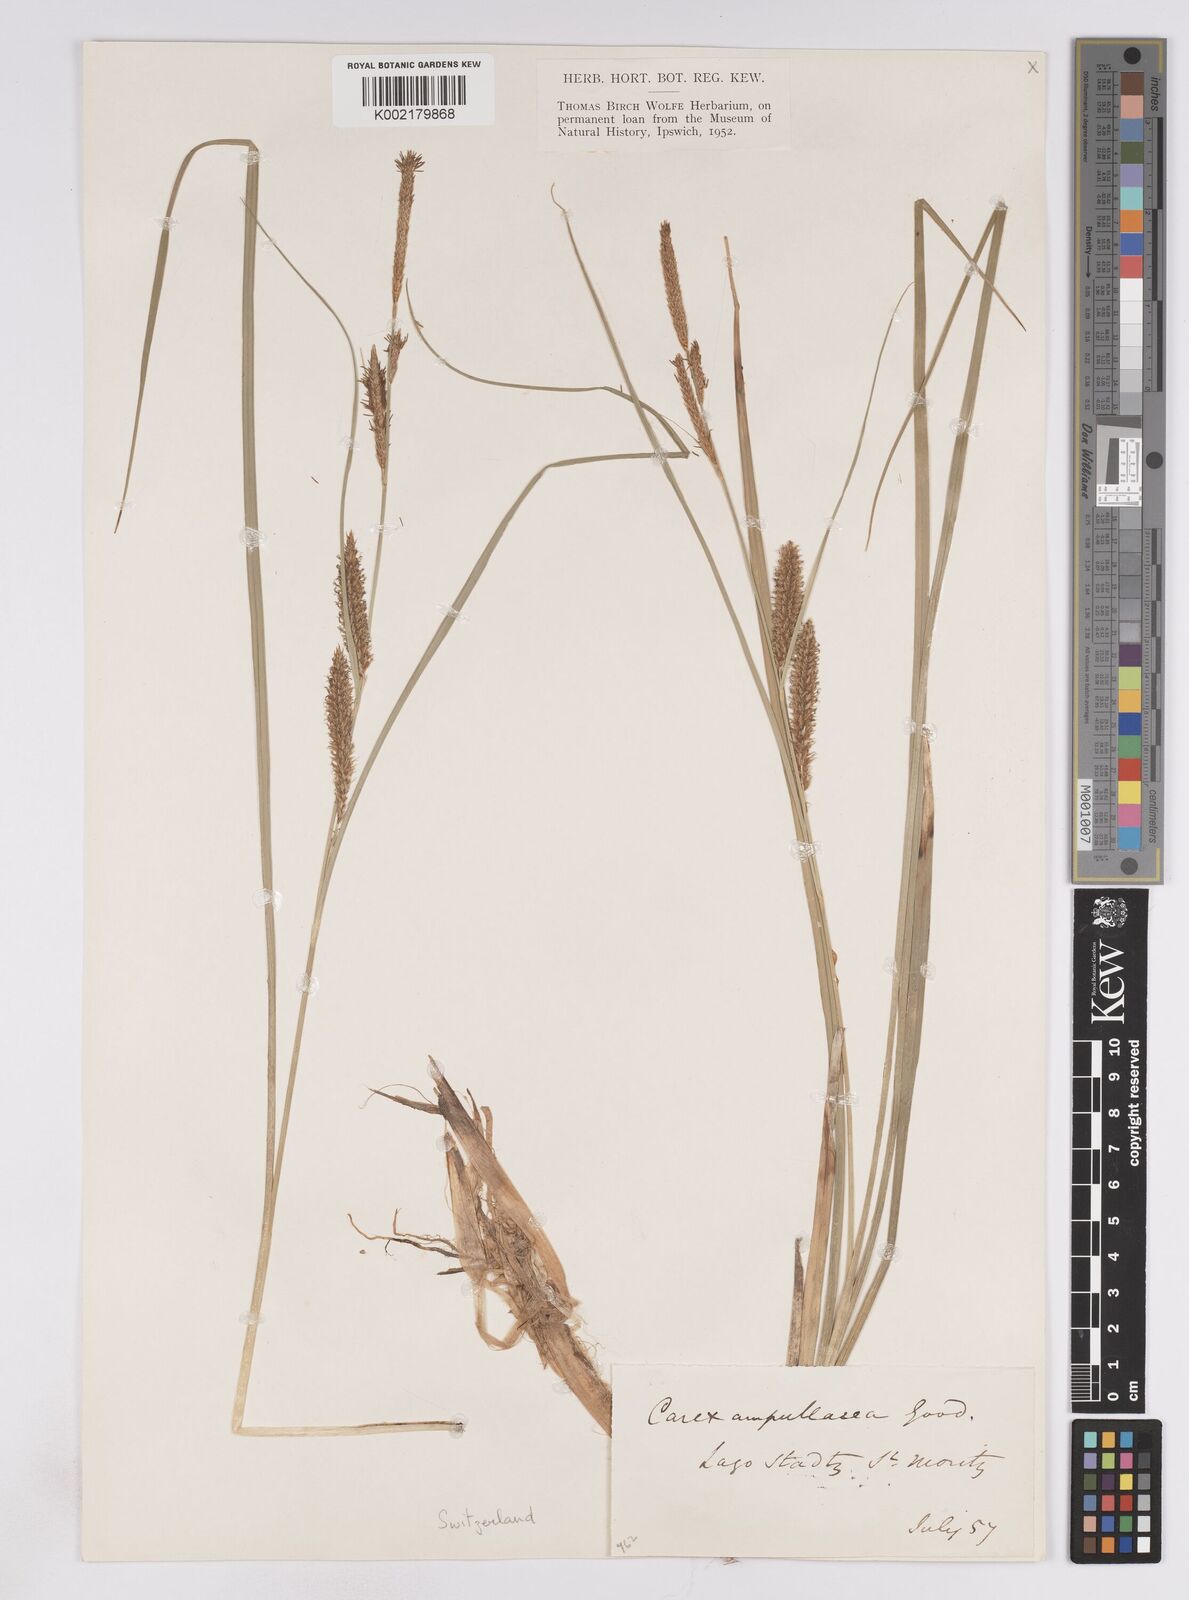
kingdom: Plantae
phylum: Tracheophyta
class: Liliopsida
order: Poales
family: Cyperaceae
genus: Carex
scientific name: Carex rostrata
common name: Bottle sedge
